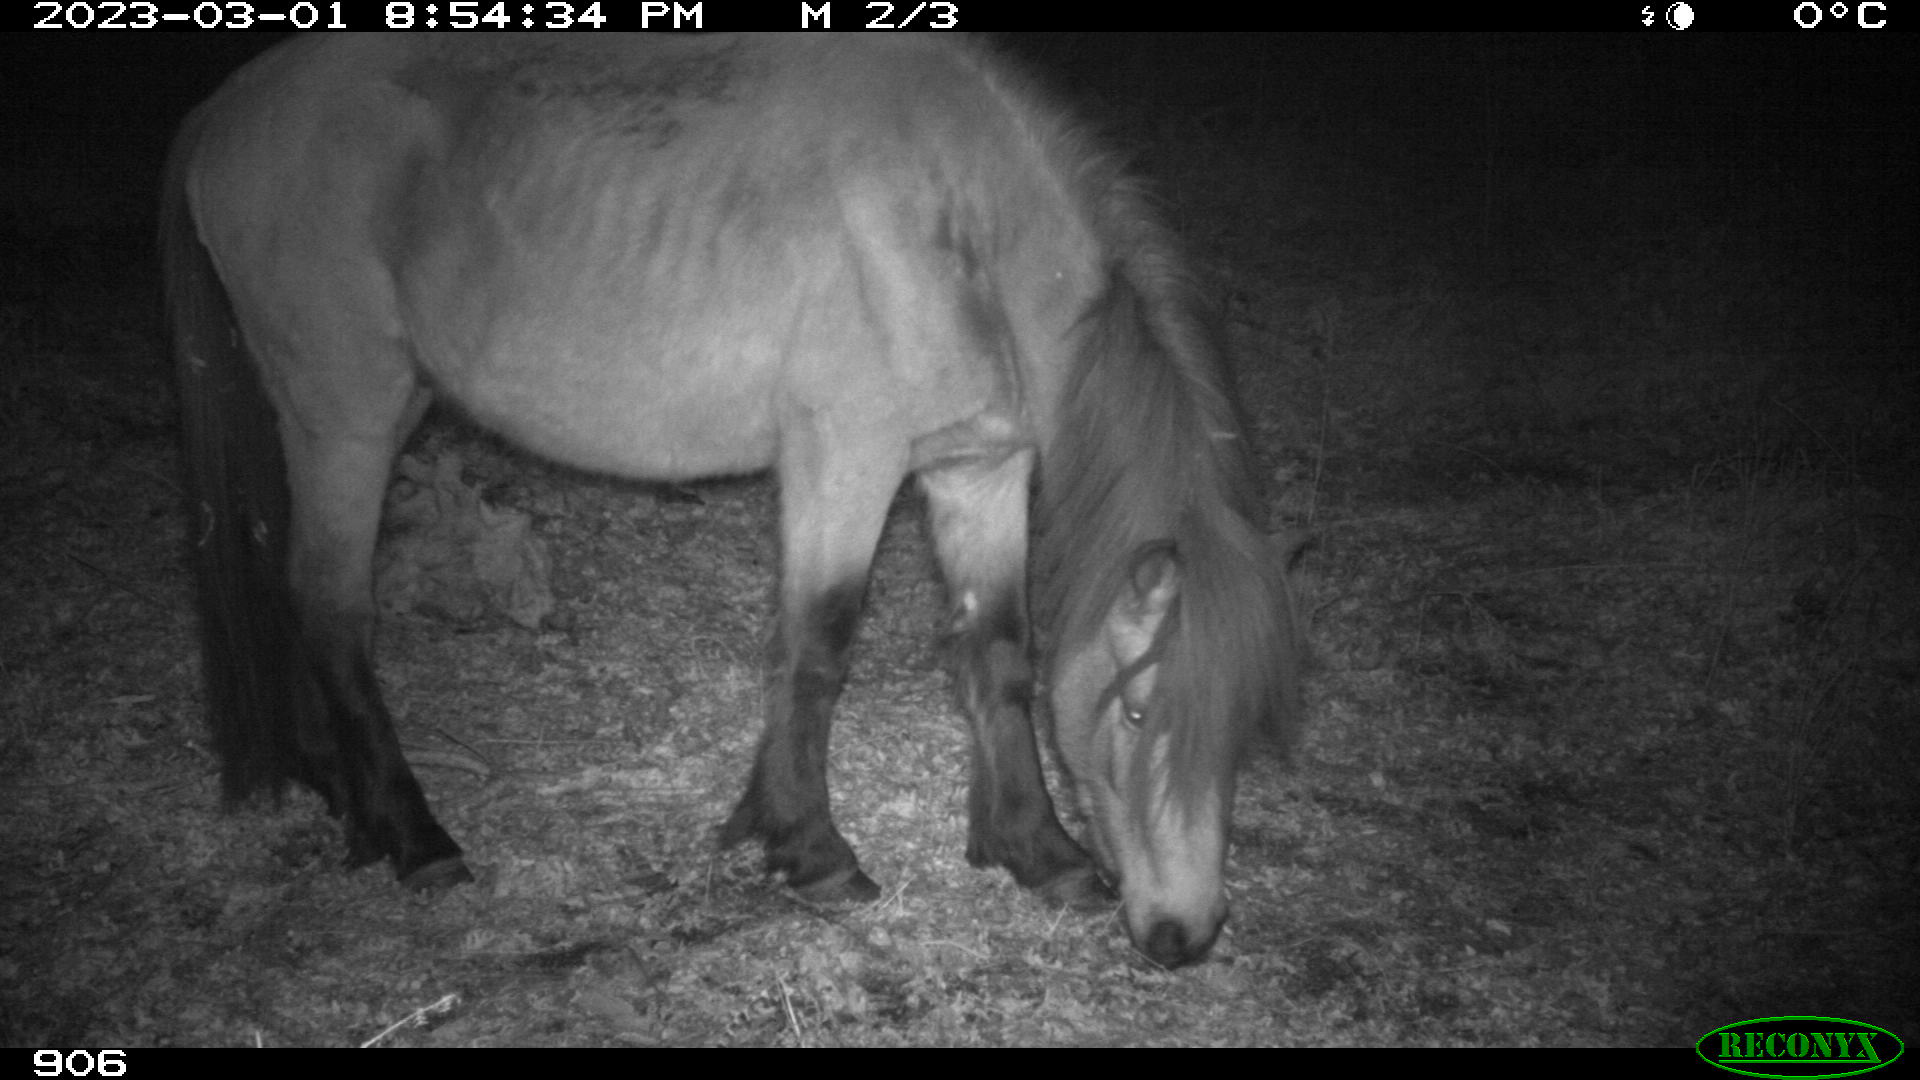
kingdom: Animalia
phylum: Chordata
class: Mammalia
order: Perissodactyla
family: Equidae
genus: Equus
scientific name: Equus caballus
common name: Horse
